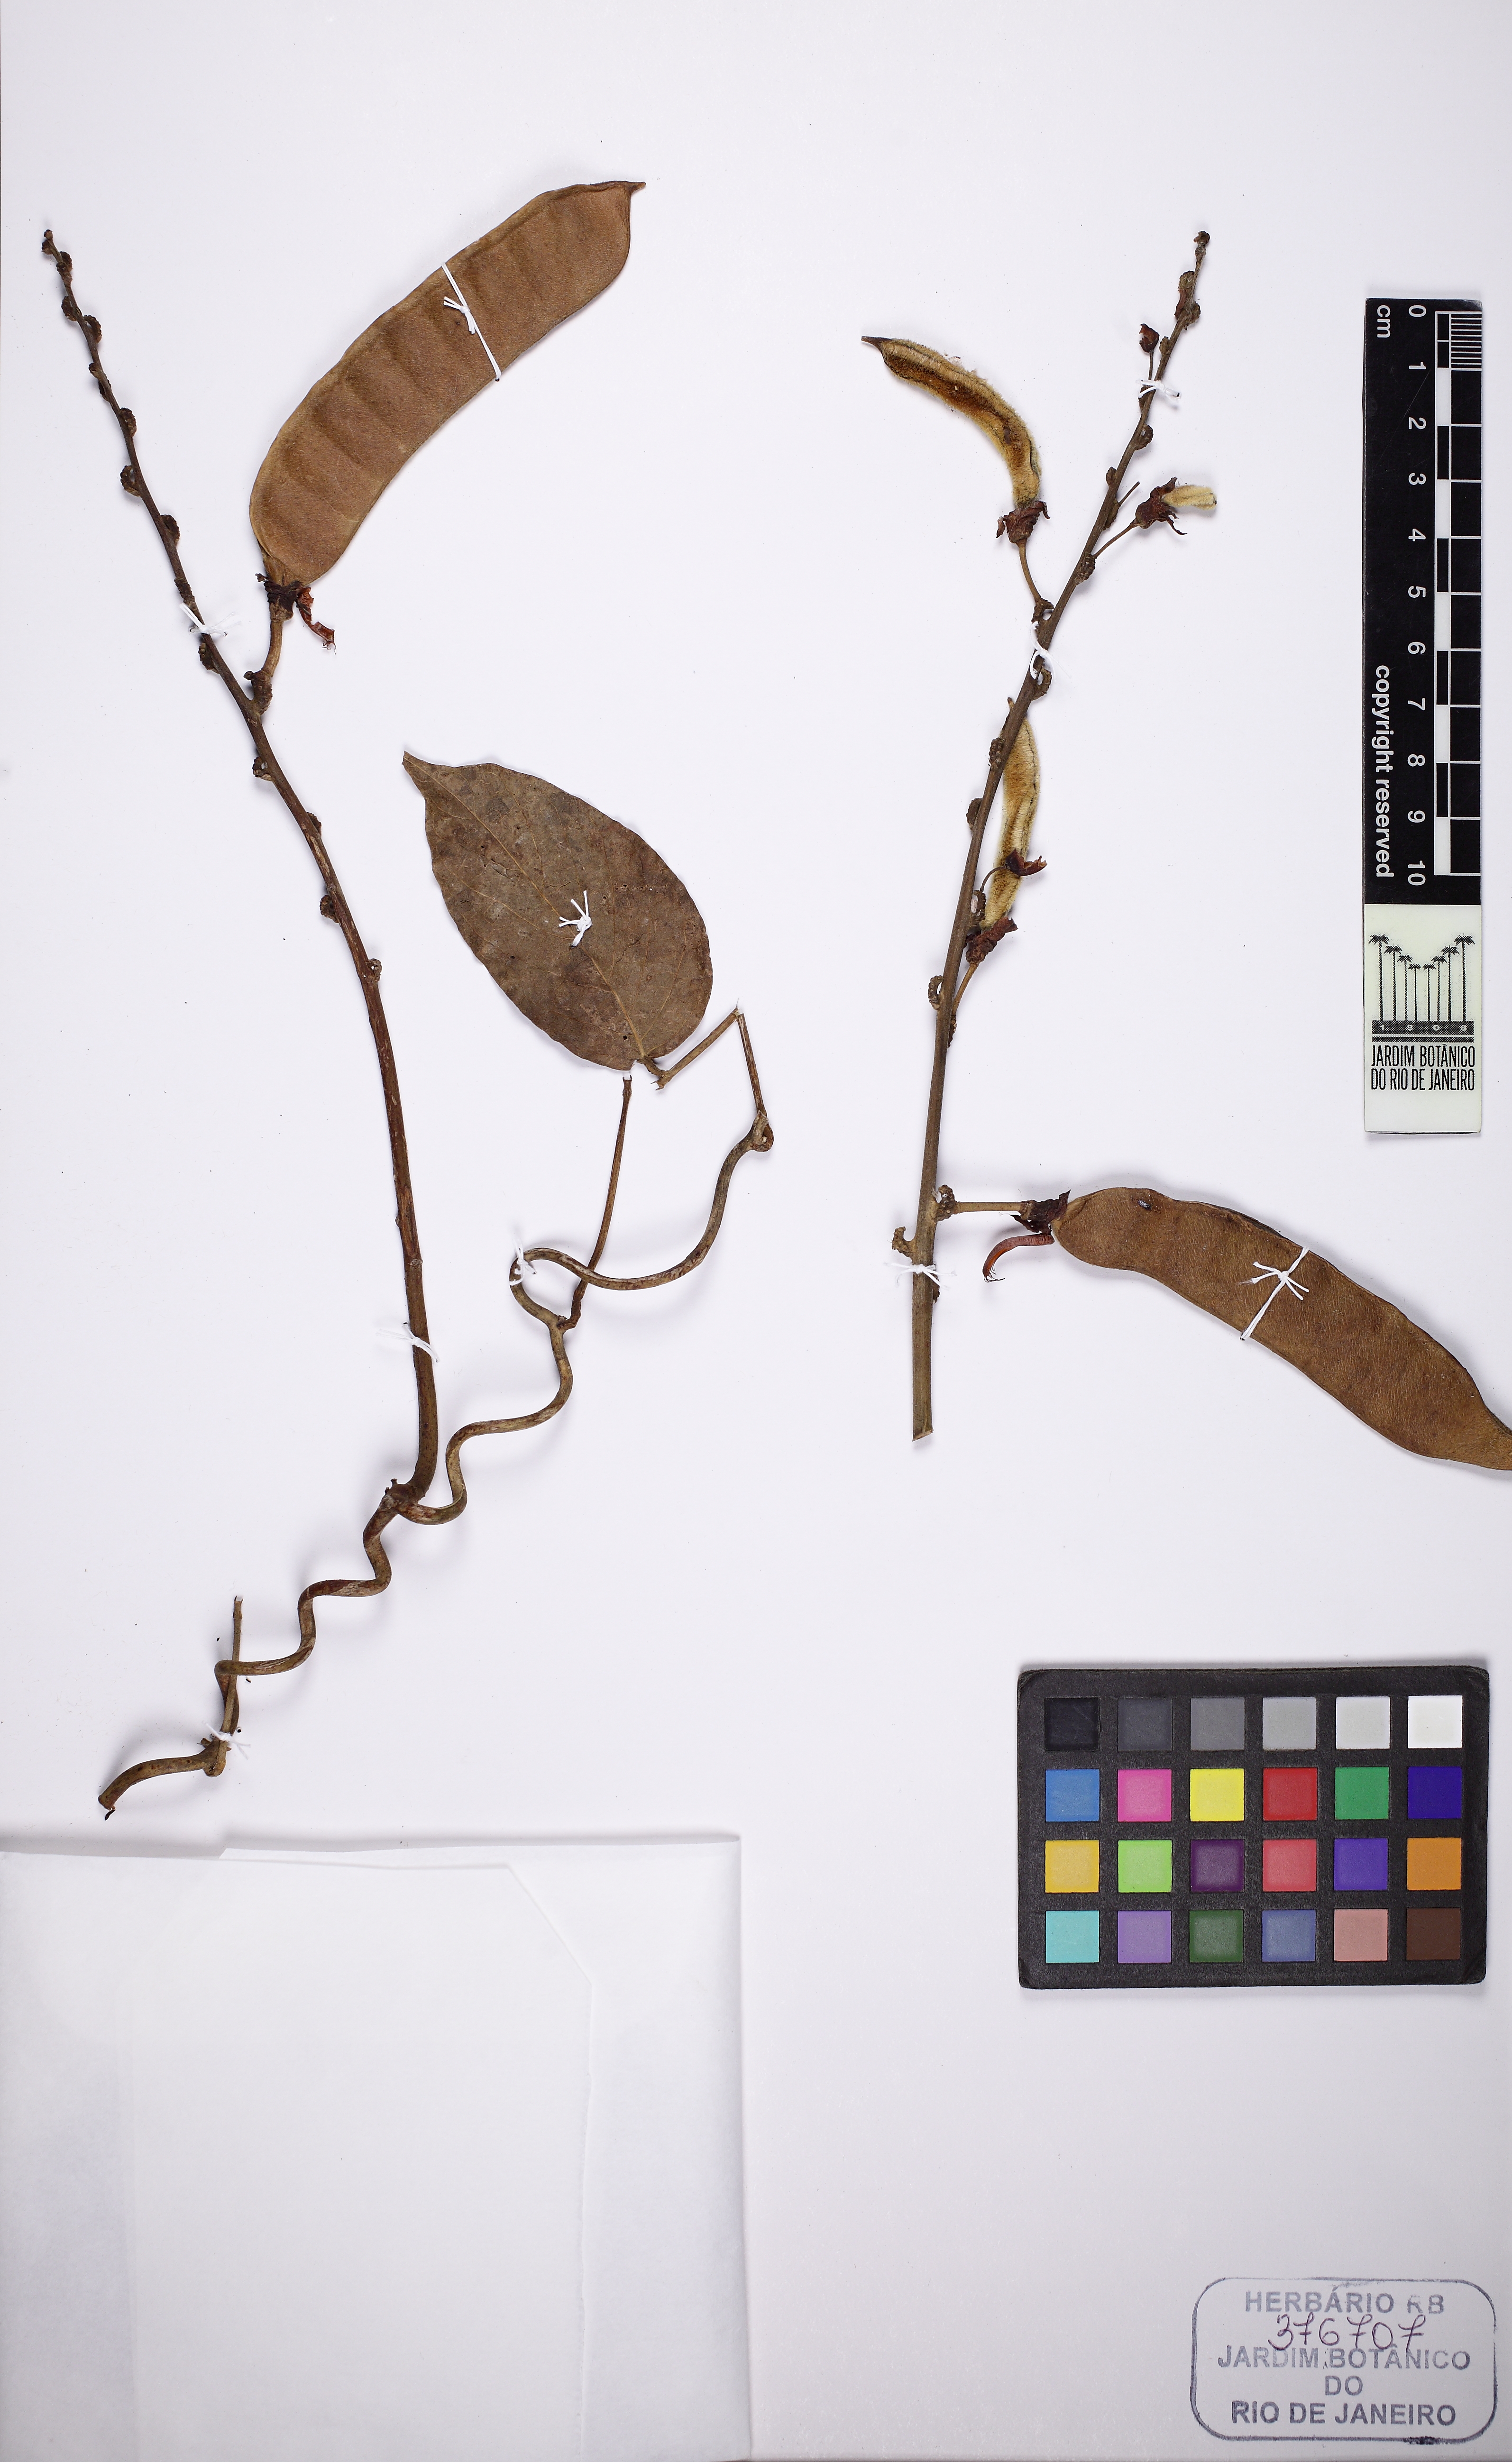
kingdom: Plantae
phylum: Tracheophyta
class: Magnoliopsida
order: Fabales
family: Fabaceae
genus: Dioclea
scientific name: Dioclea virgata
